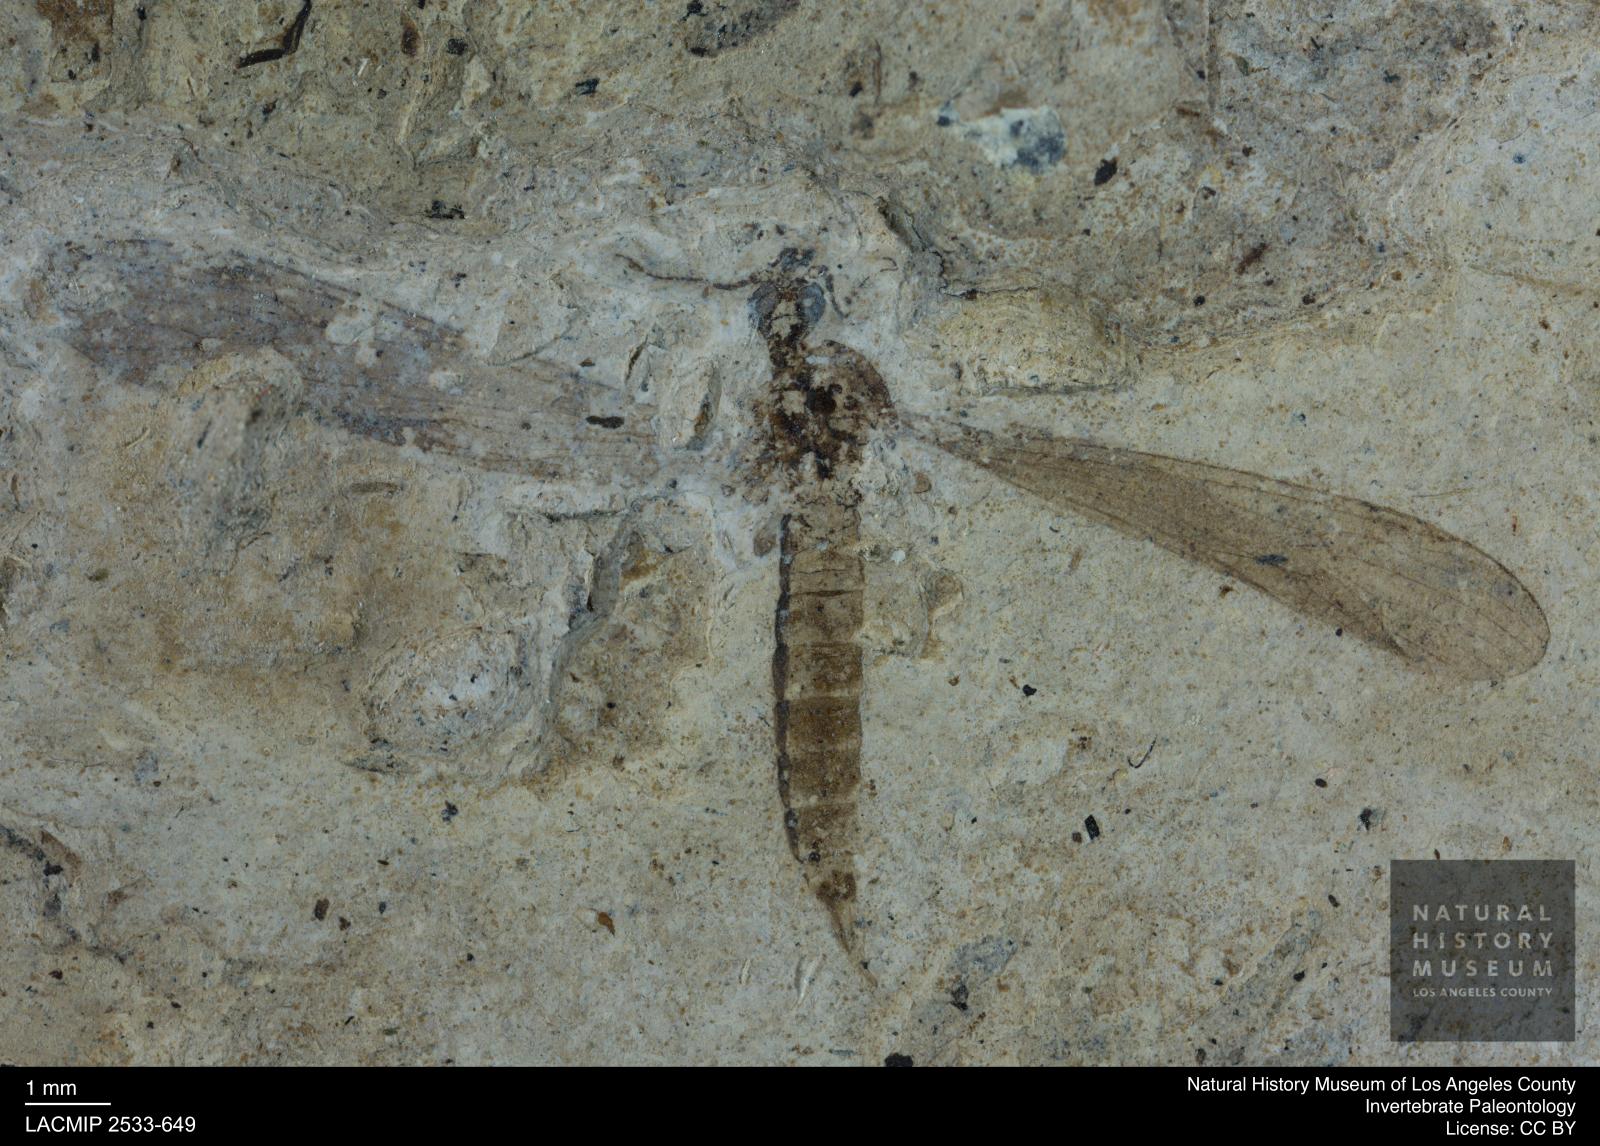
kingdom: Animalia
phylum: Arthropoda
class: Insecta
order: Diptera
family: Limoniidae
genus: Limnophila
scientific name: Limnophila pterotrichia
